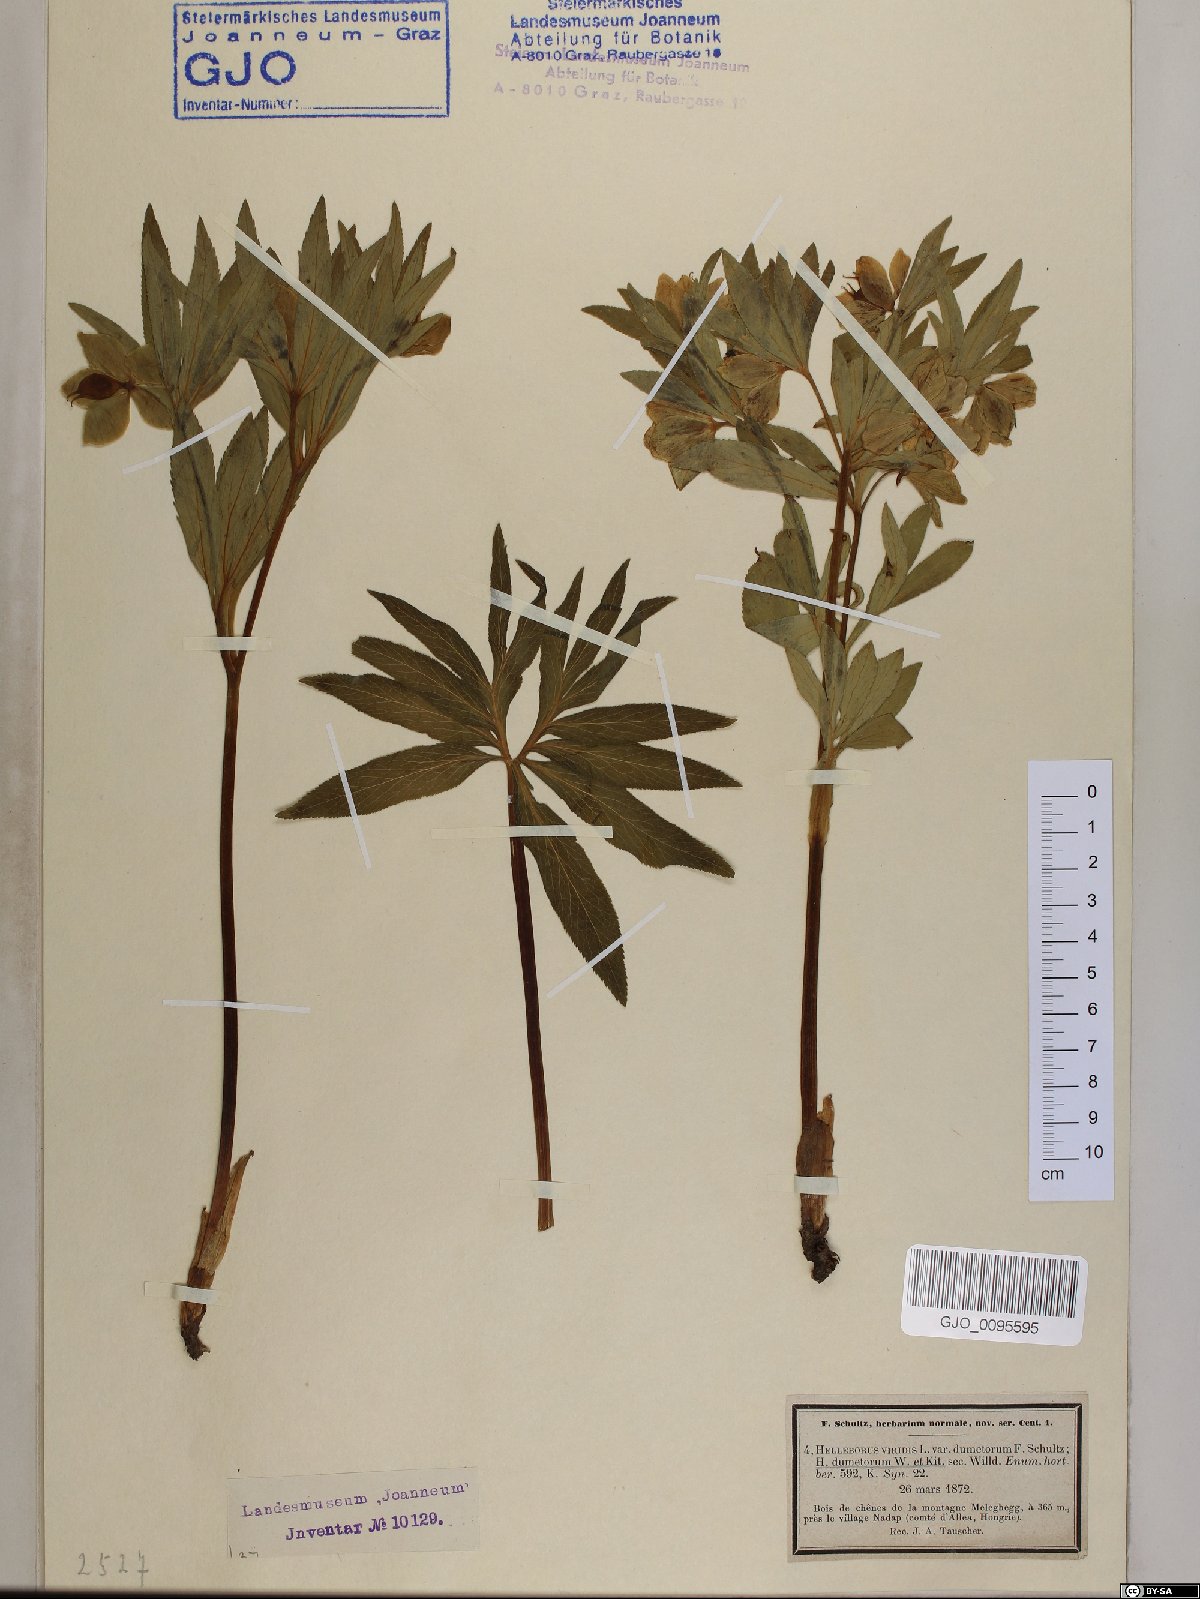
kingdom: Plantae
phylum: Tracheophyta
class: Magnoliopsida
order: Ranunculales
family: Ranunculaceae
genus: Helleborus
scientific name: Helleborus dumetorum
